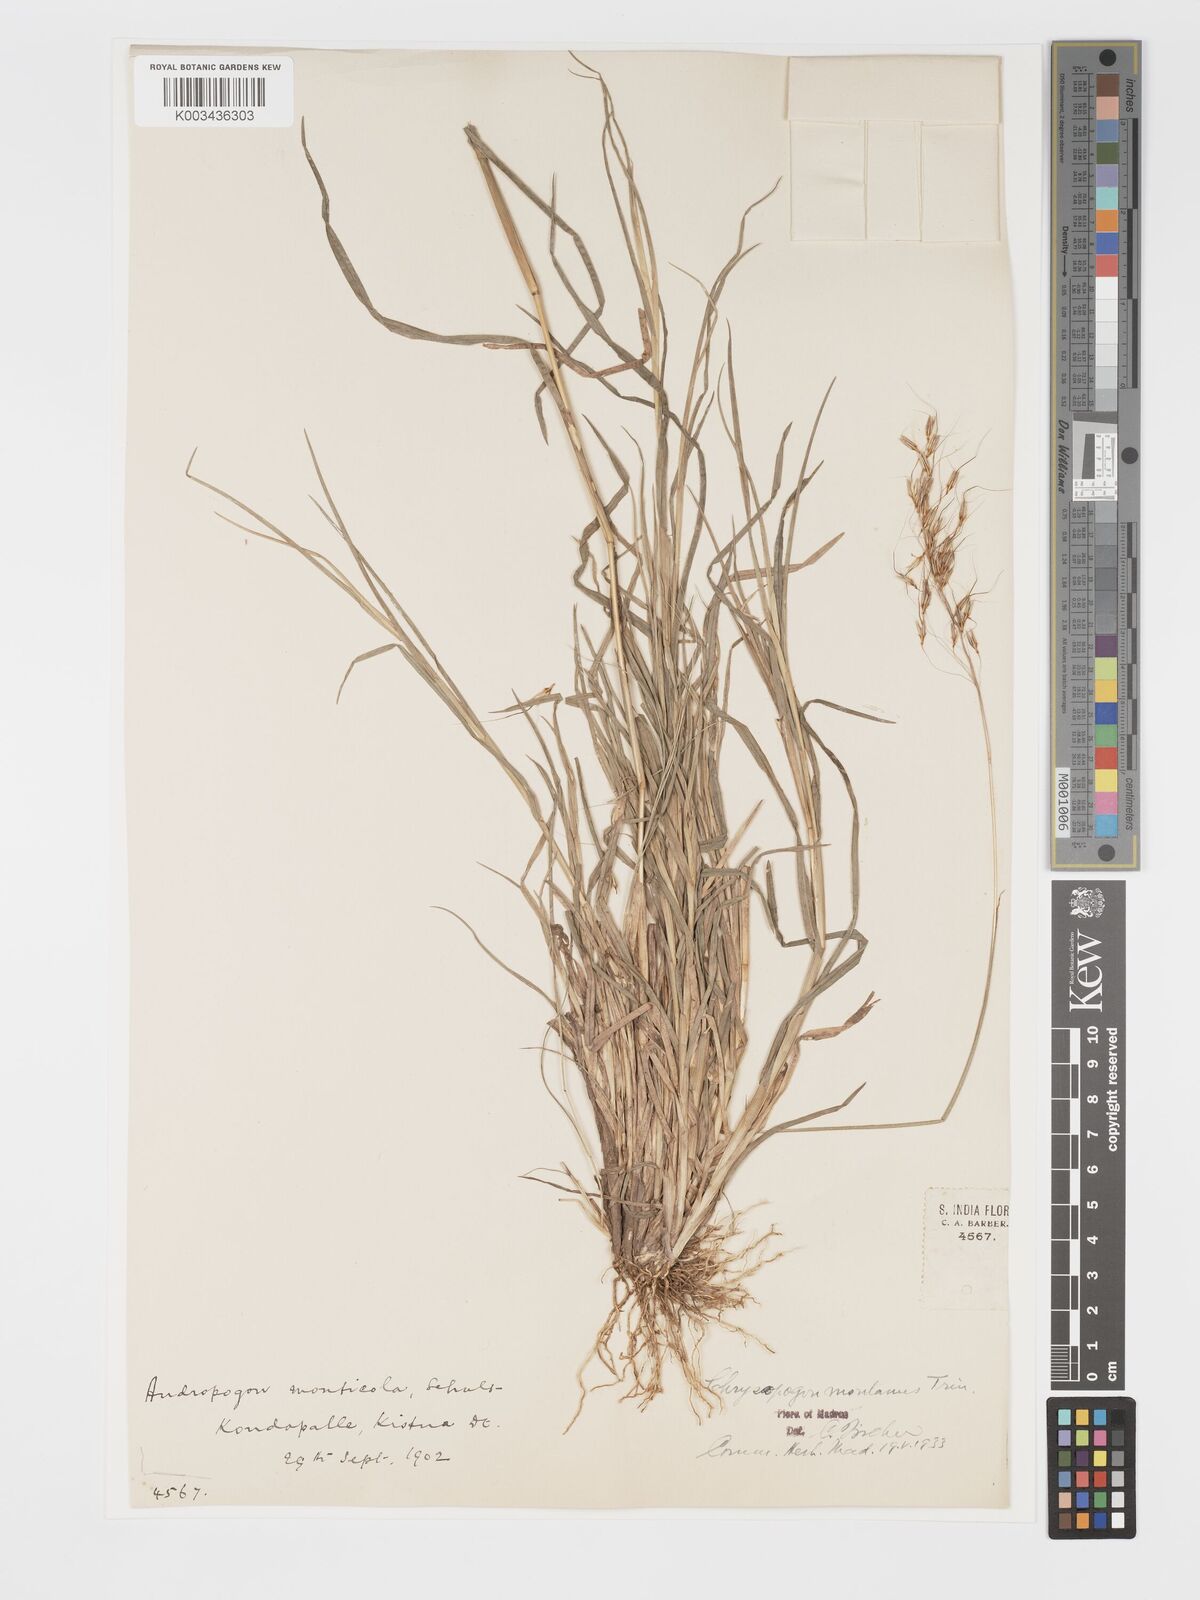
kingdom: Plantae
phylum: Tracheophyta
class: Liliopsida
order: Poales
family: Poaceae
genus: Chrysopogon
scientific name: Chrysopogon fulvus
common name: Red false beardgrass
